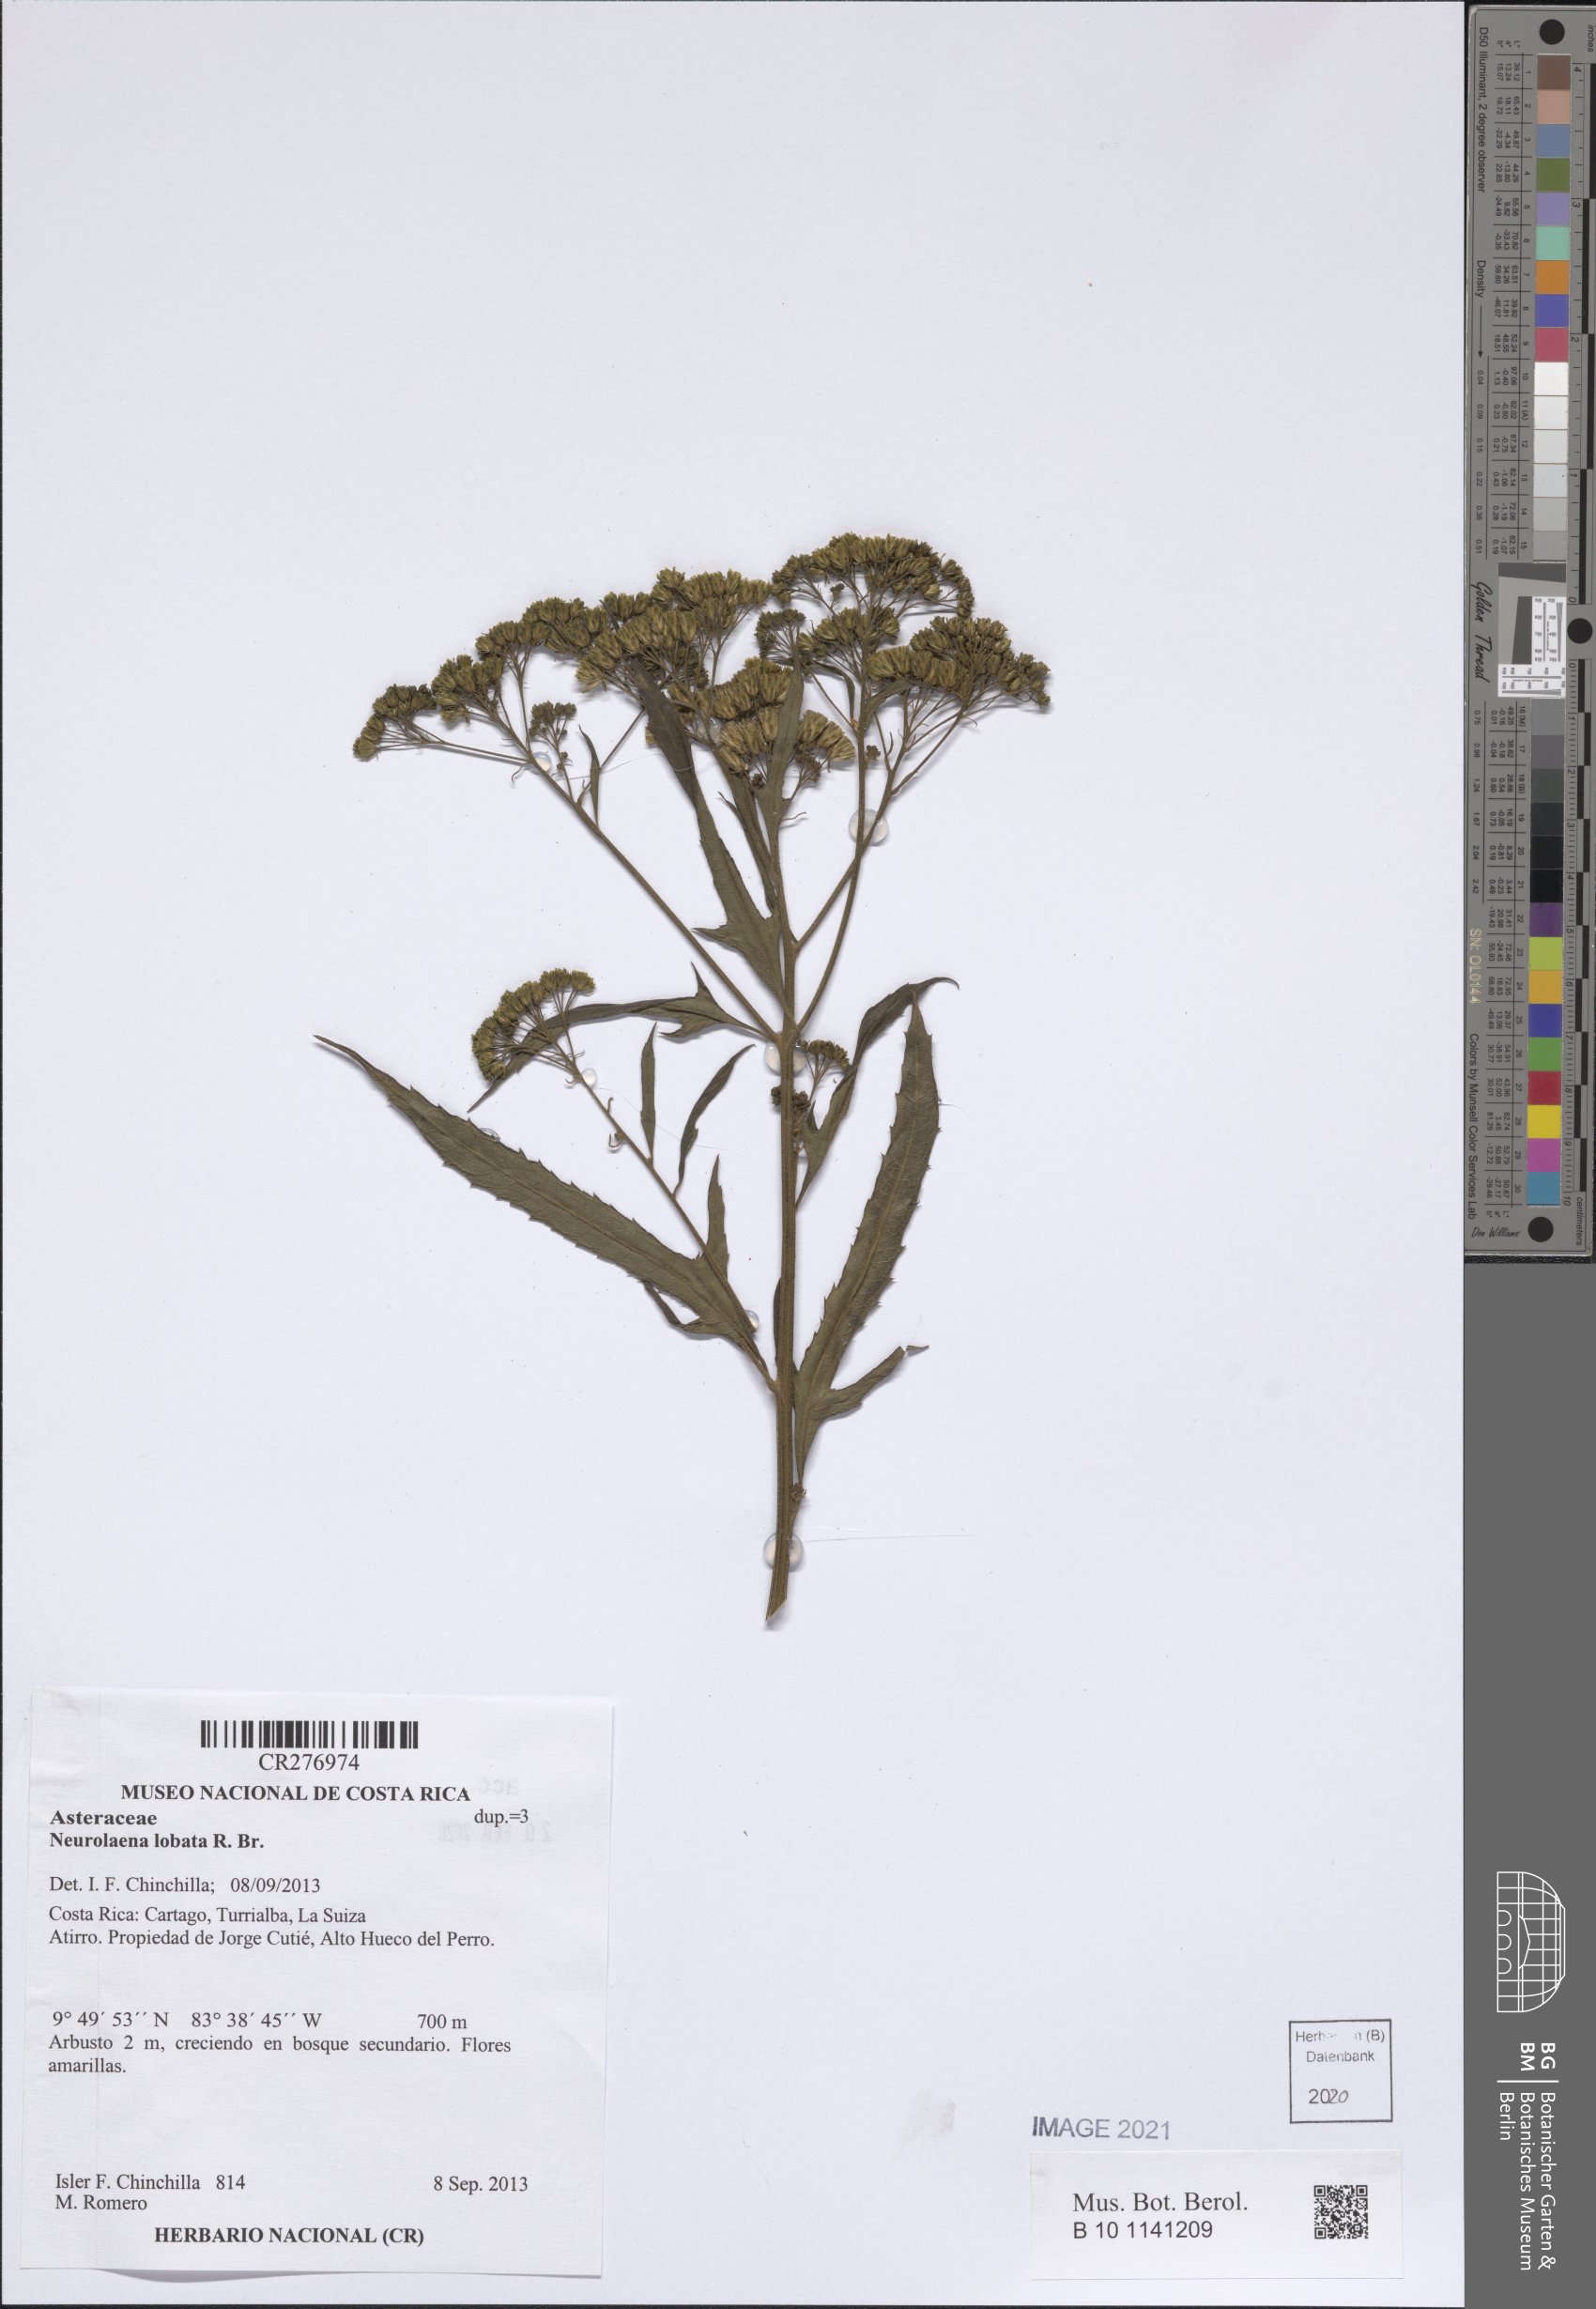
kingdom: Plantae
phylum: Tracheophyta
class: Magnoliopsida
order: Asterales
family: Asteraceae
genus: Neurolaena
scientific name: Neurolaena lobata
